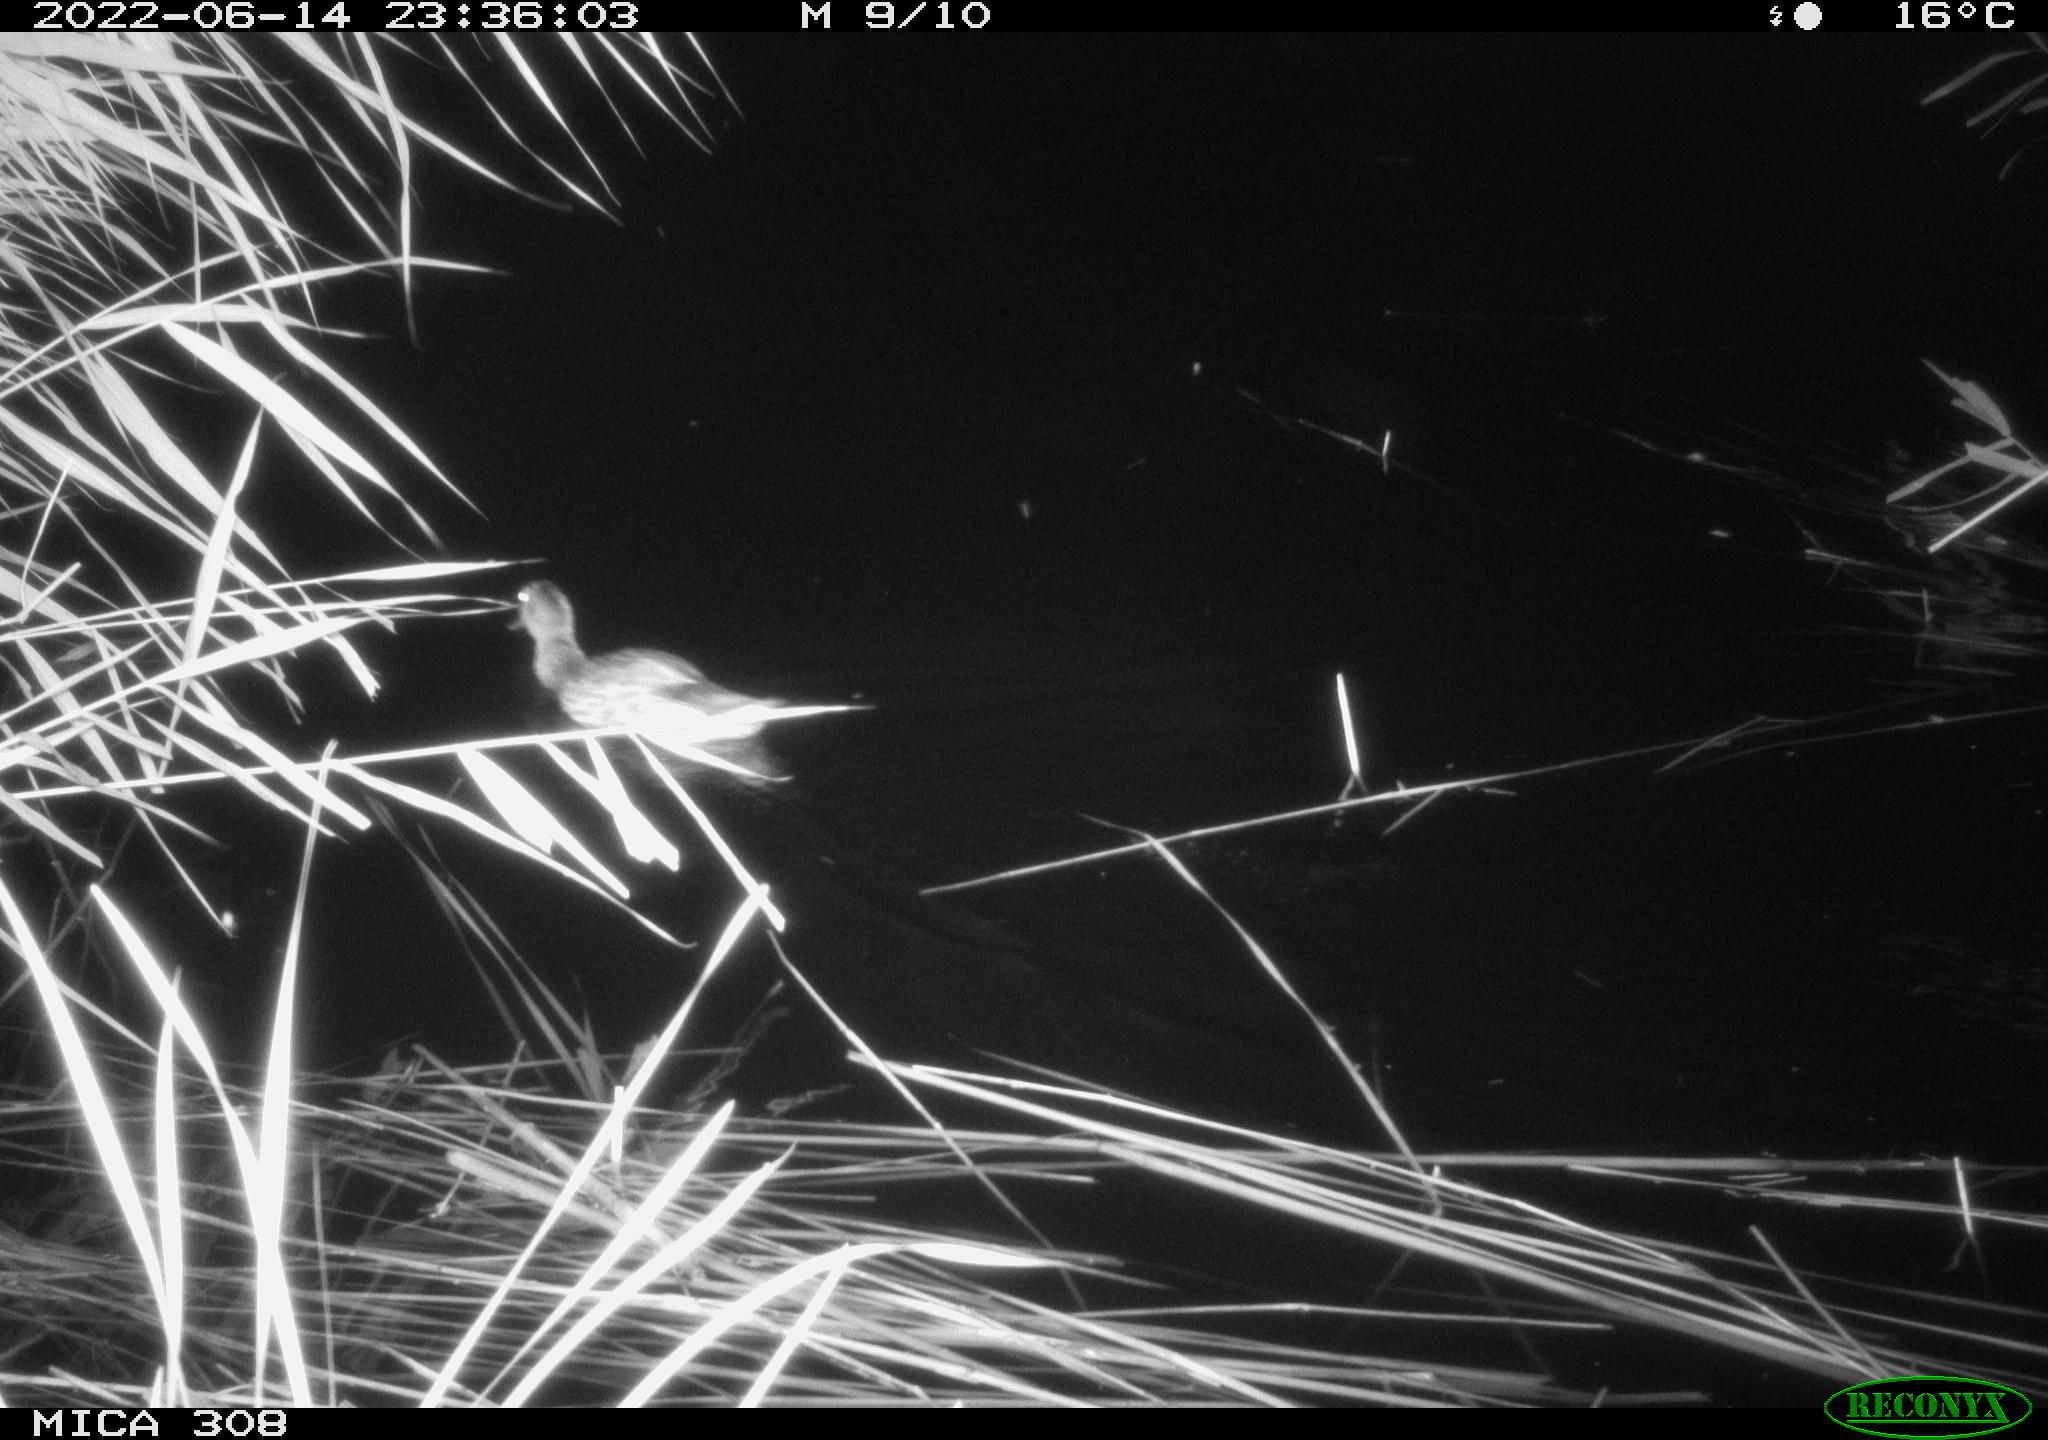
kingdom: Animalia
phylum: Chordata
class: Aves
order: Anseriformes
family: Anatidae
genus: Anas
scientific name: Anas platyrhynchos
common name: Mallard
